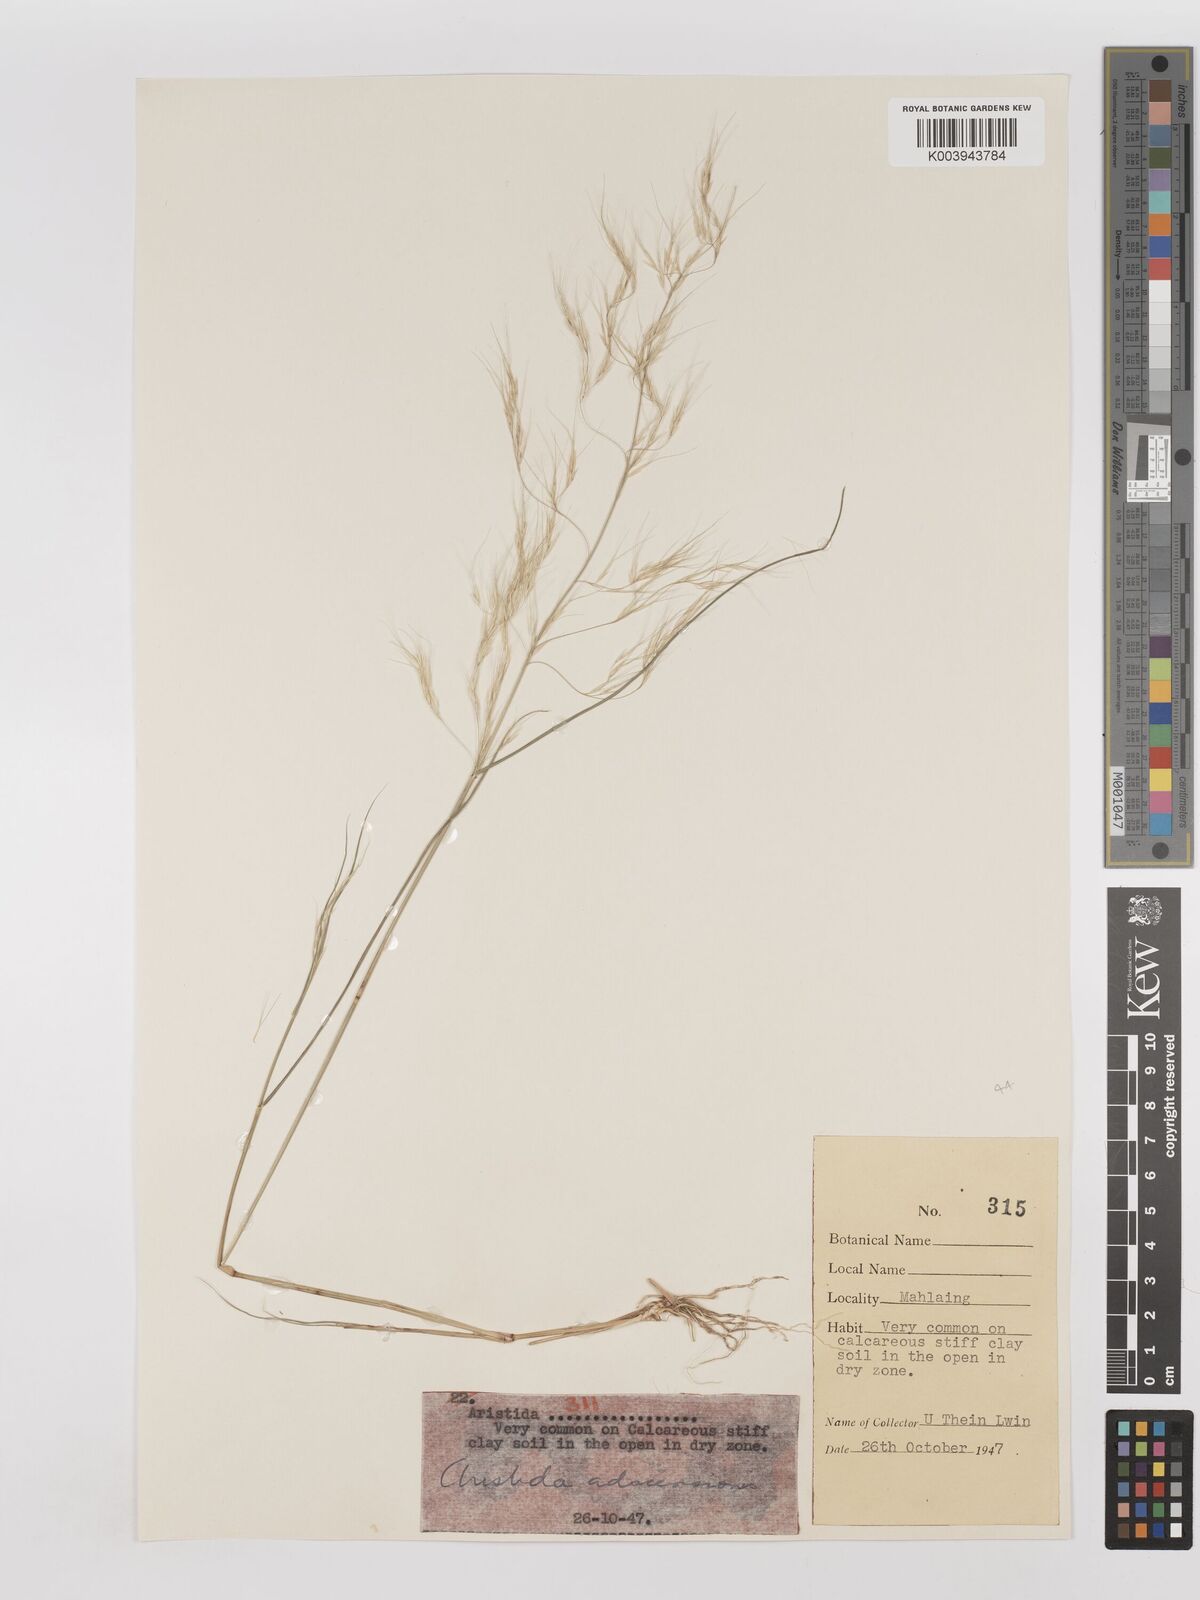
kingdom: Plantae
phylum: Tracheophyta
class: Liliopsida
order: Poales
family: Poaceae
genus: Aristida
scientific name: Aristida adscensionis
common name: Sixweeks threeawn
